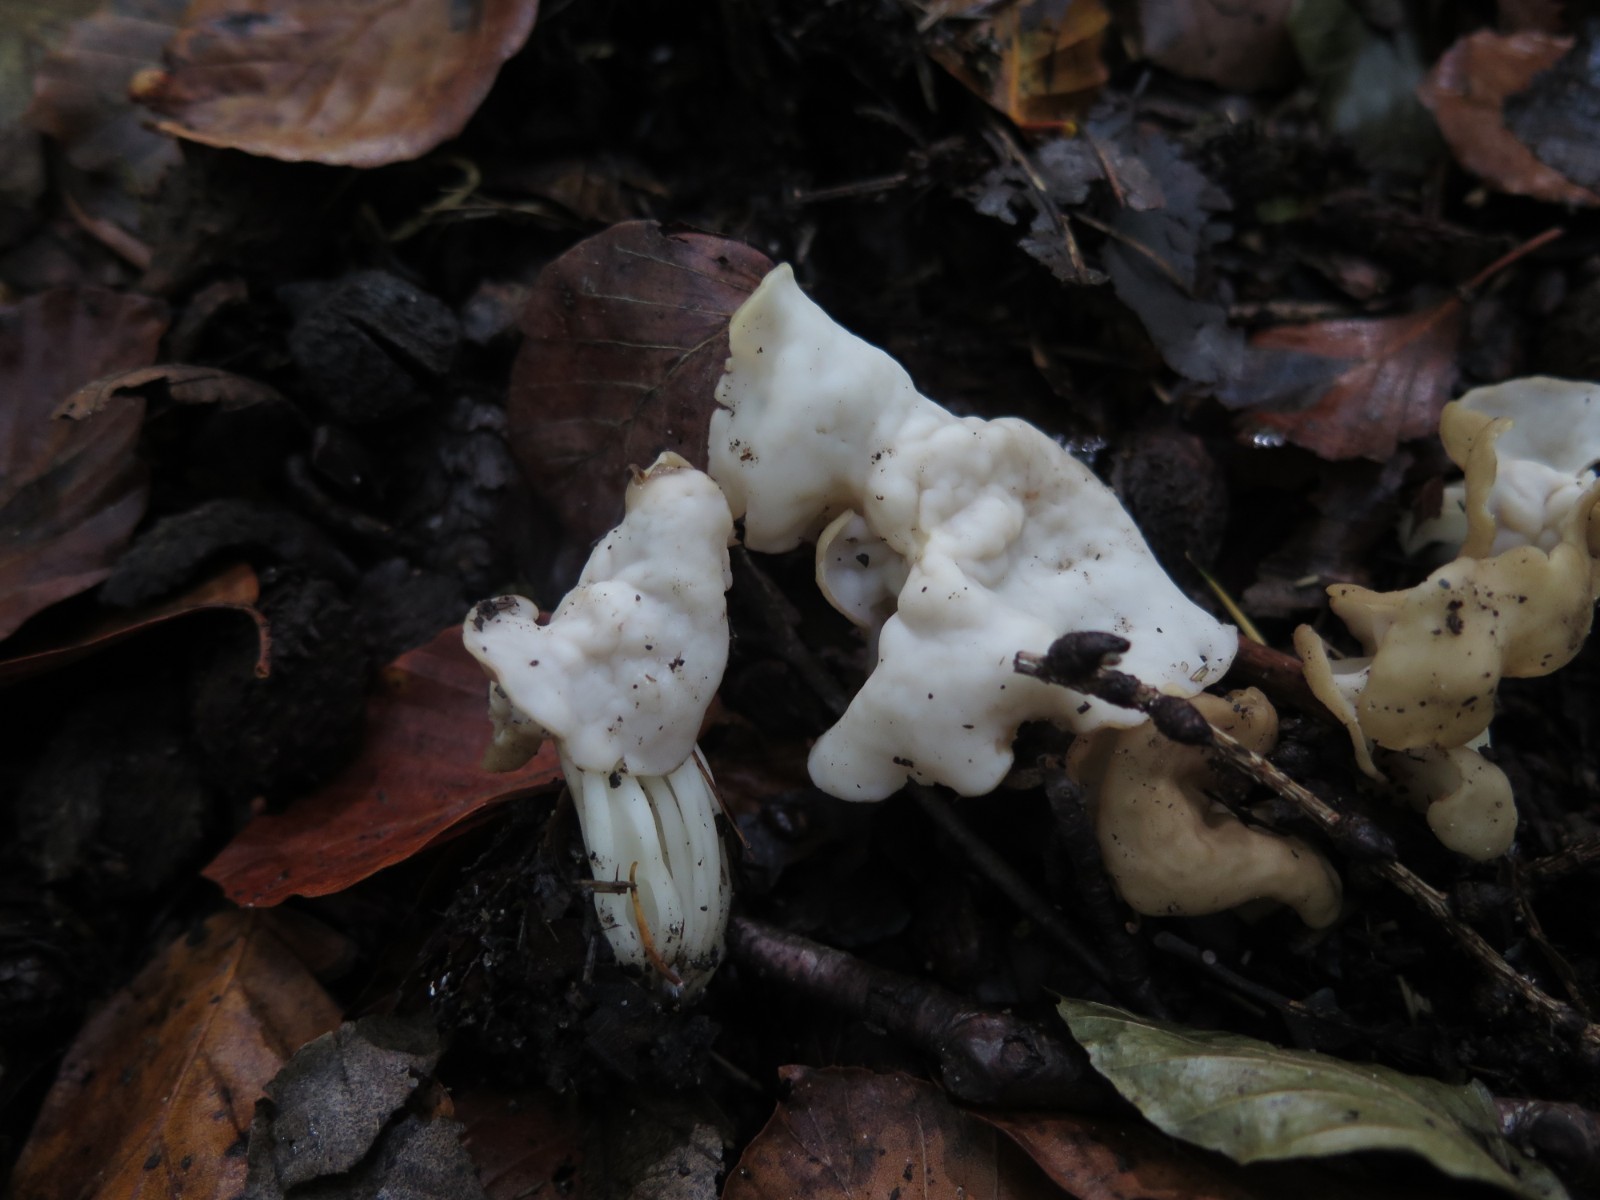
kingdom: Fungi
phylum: Ascomycota
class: Pezizomycetes
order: Pezizales
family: Helvellaceae
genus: Helvella
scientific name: Helvella lacunosa
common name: grubet foldhat
